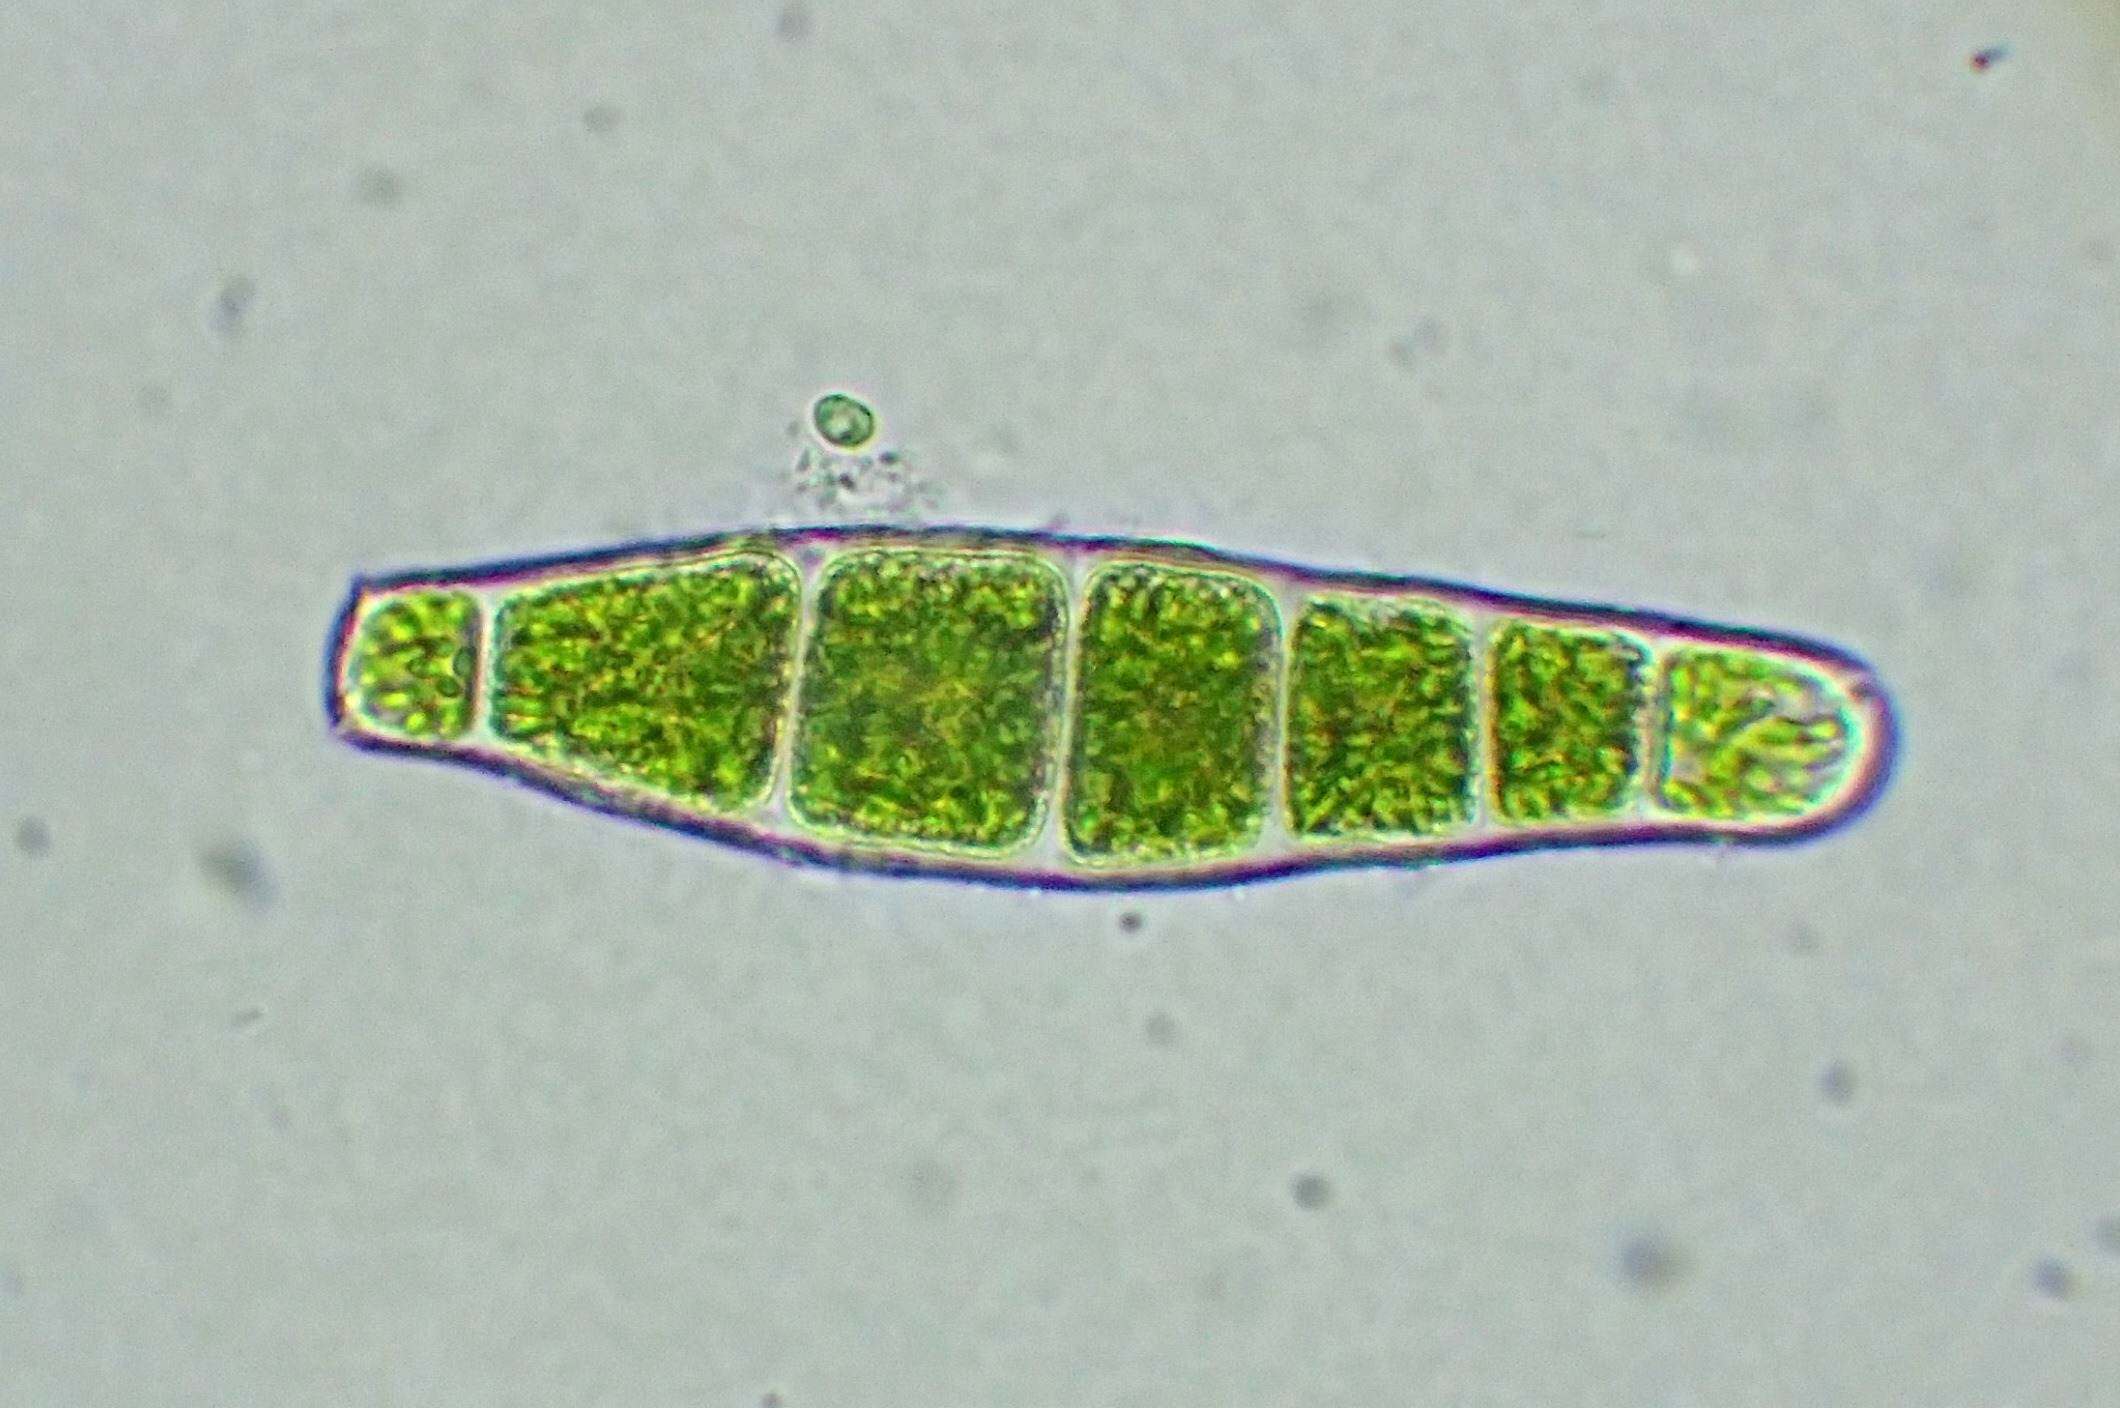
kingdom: Plantae
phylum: Bryophyta
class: Bryopsida
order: Orthotrichales
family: Orthotrichaceae
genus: Zygodon
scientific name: Zygodon conoideus
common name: Tand-køllemos
